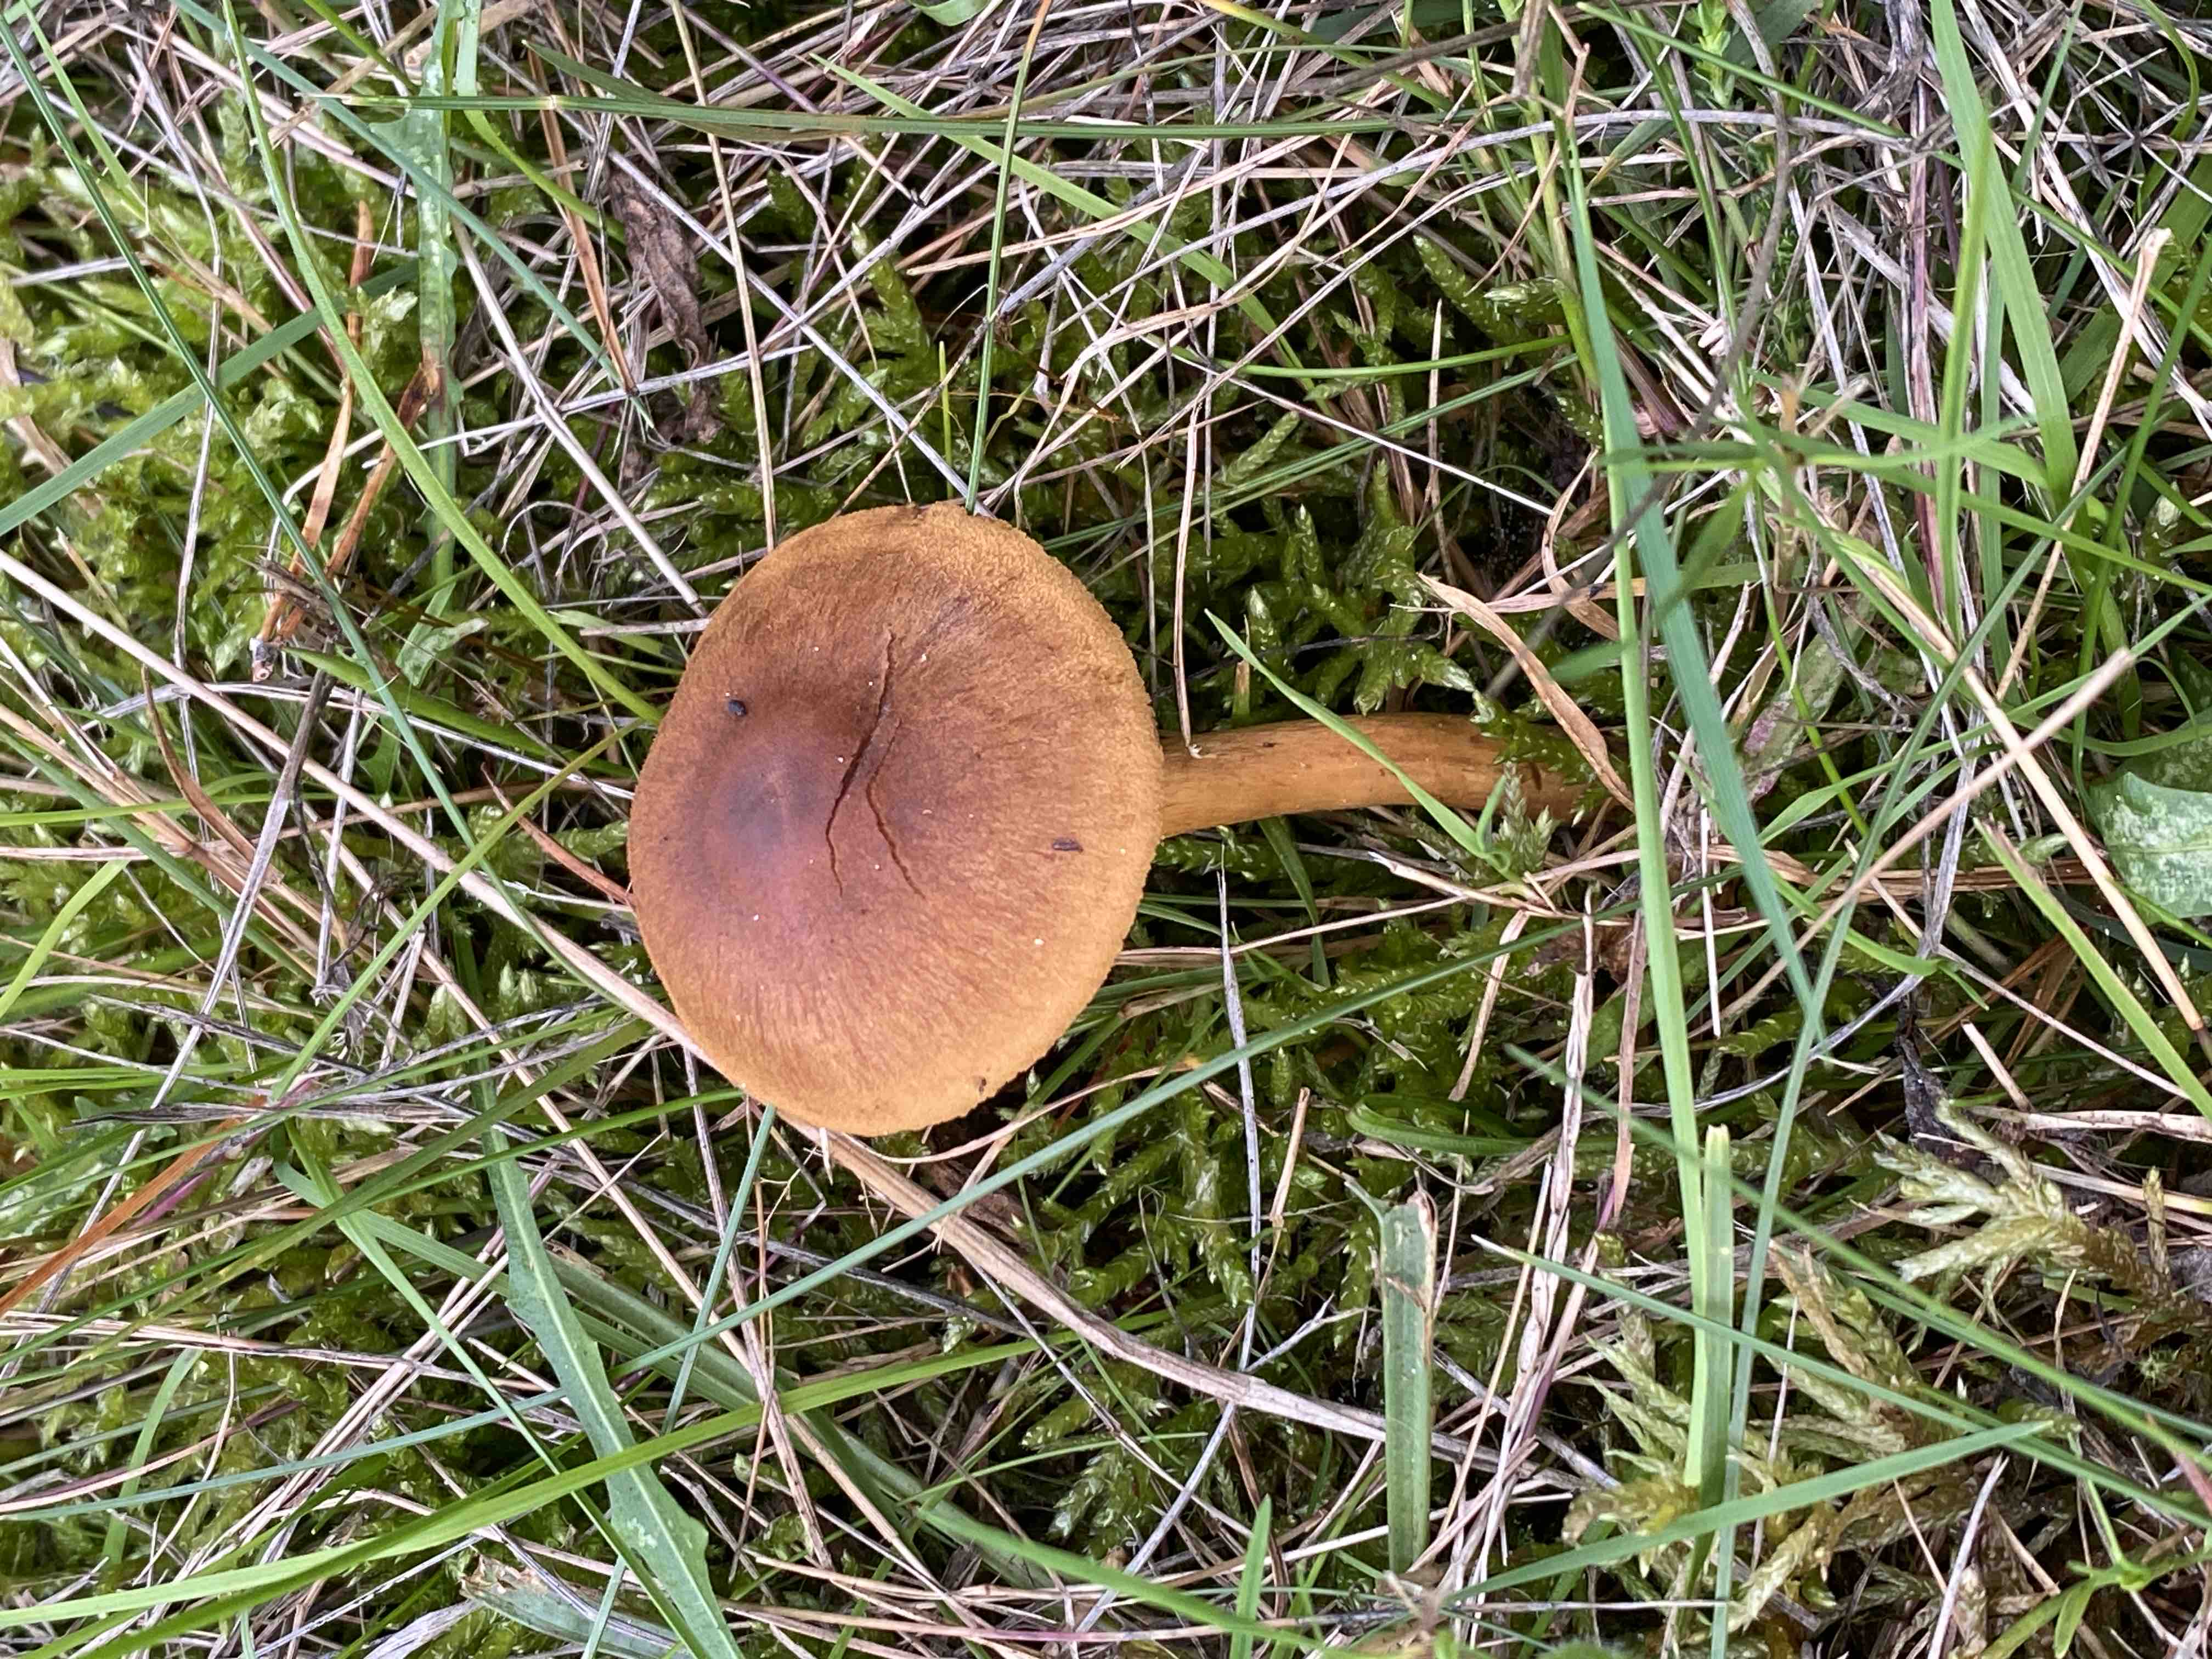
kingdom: Fungi
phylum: Basidiomycota
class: Agaricomycetes
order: Agaricales
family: Cortinariaceae
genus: Cortinarius
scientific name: Cortinarius
